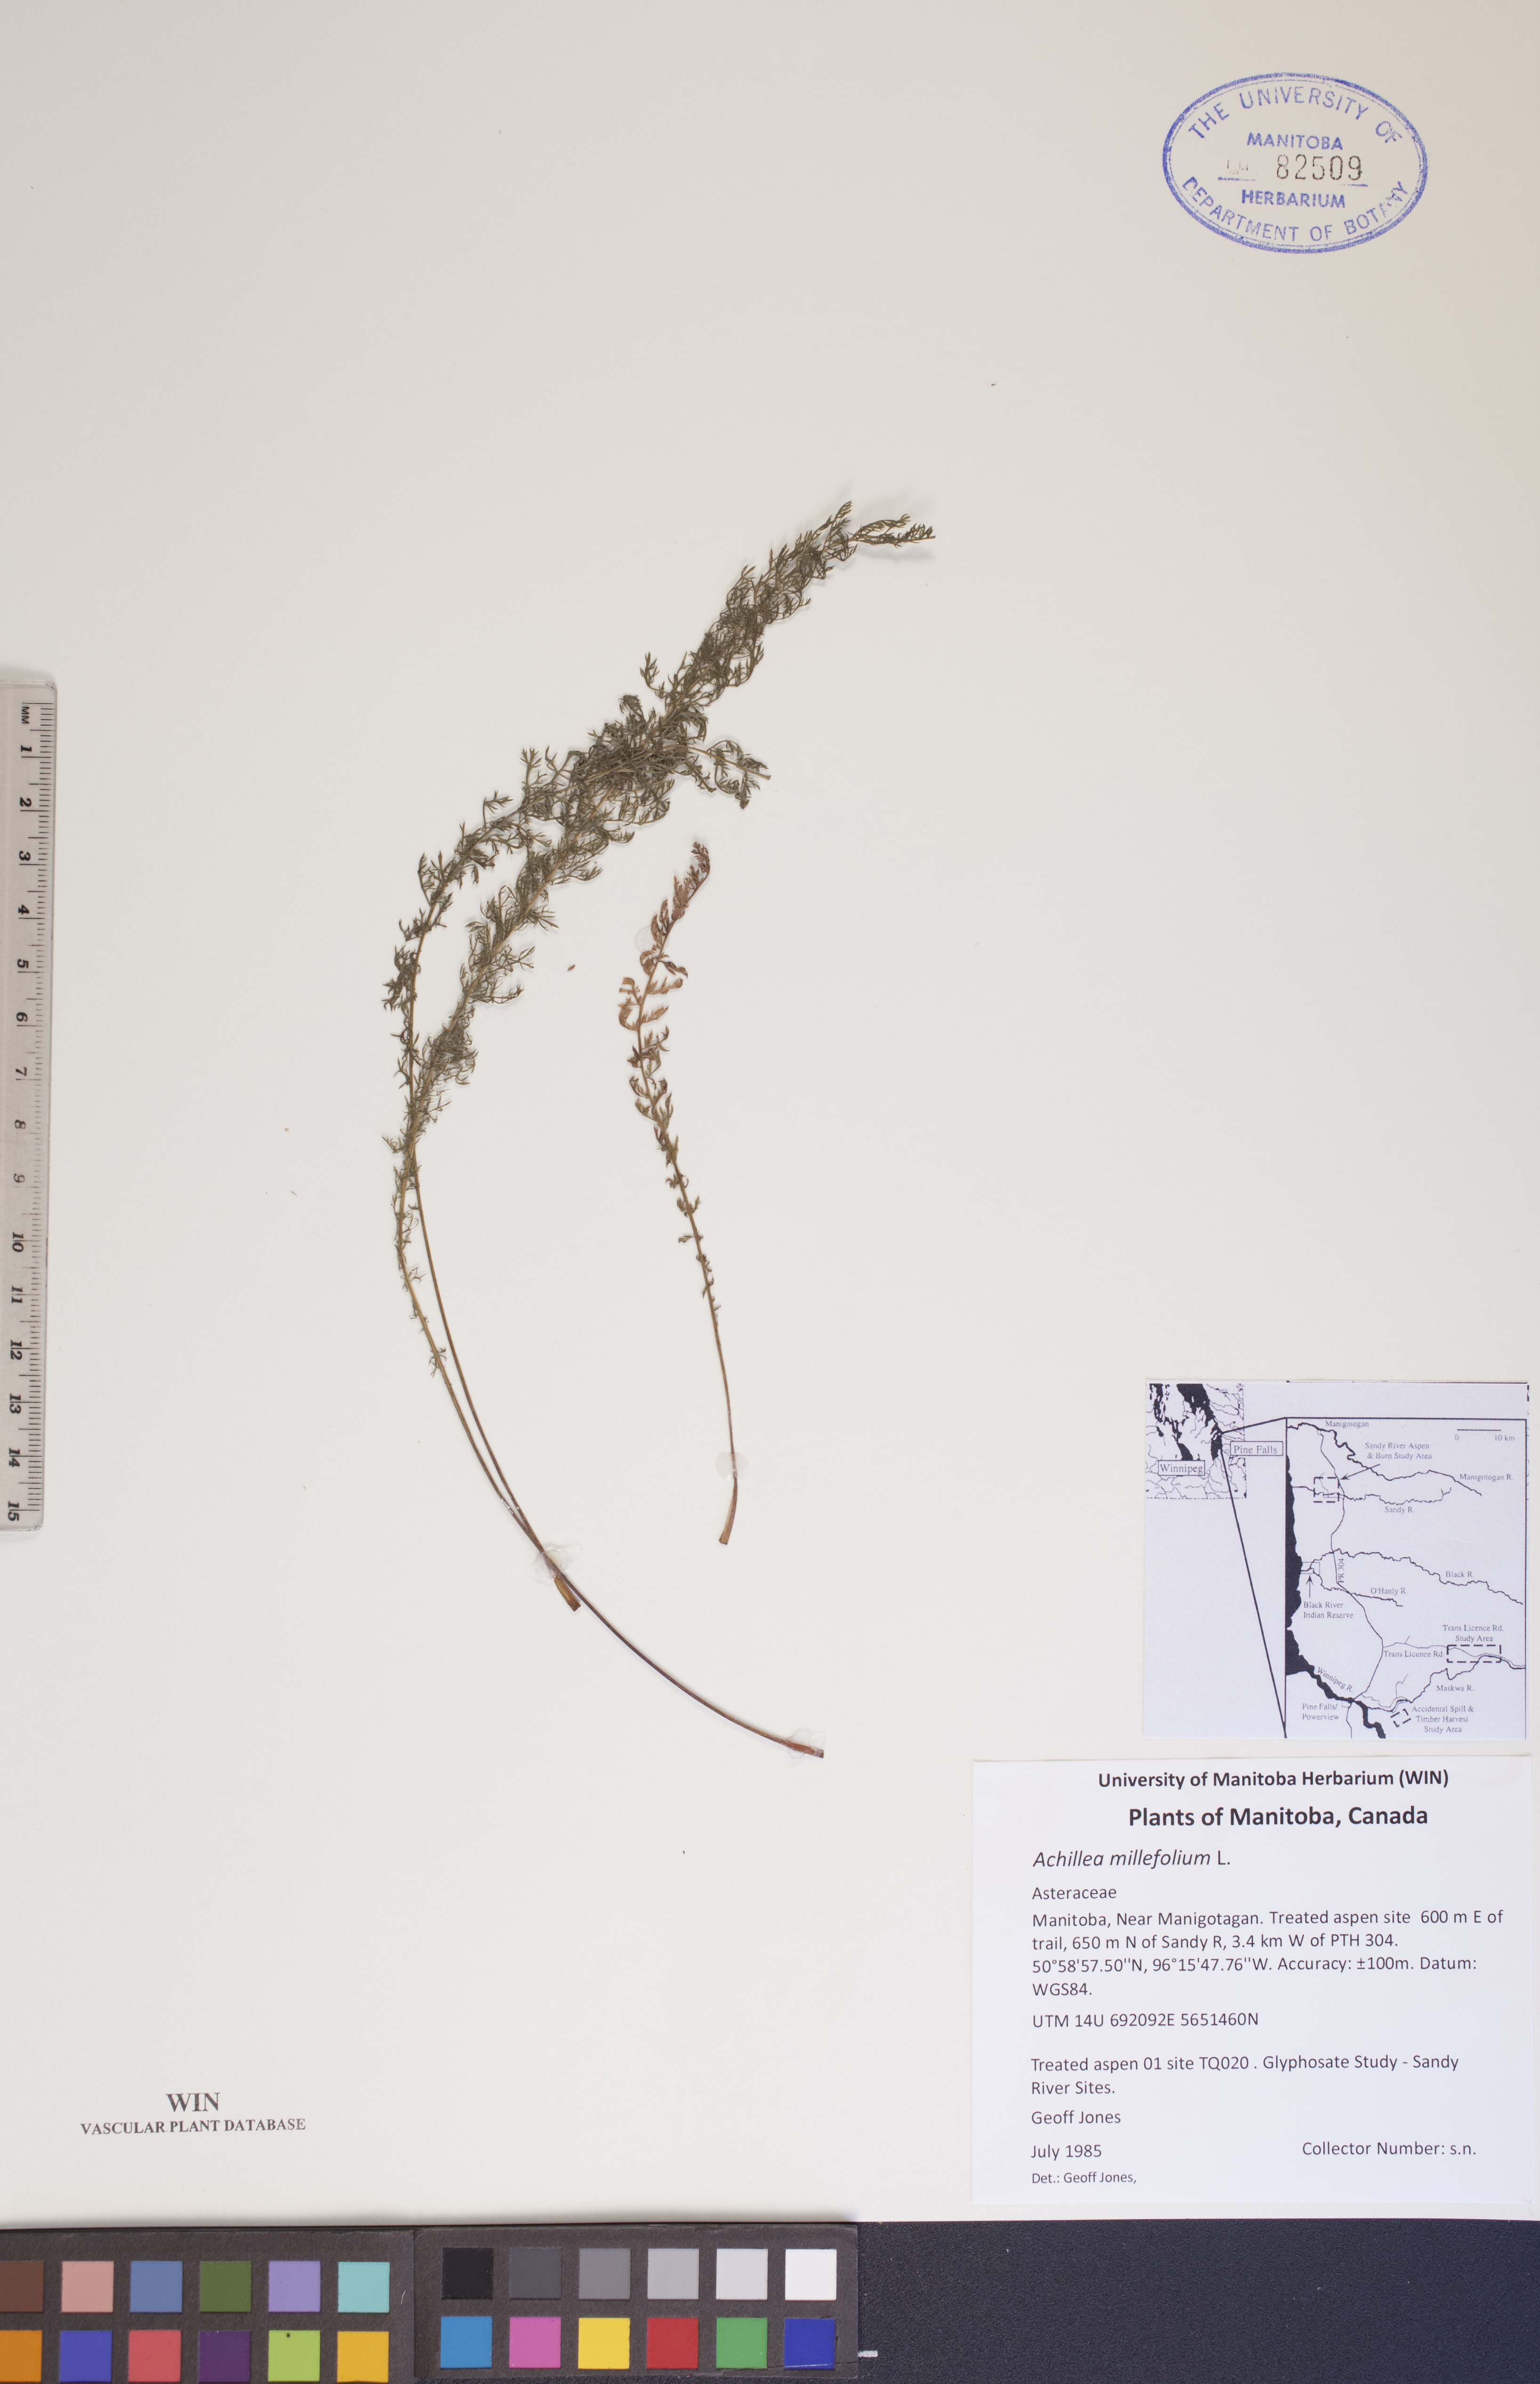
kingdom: Plantae
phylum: Tracheophyta
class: Magnoliopsida
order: Asterales
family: Asteraceae
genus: Achillea
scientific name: Achillea millefolium
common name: Yarrow
